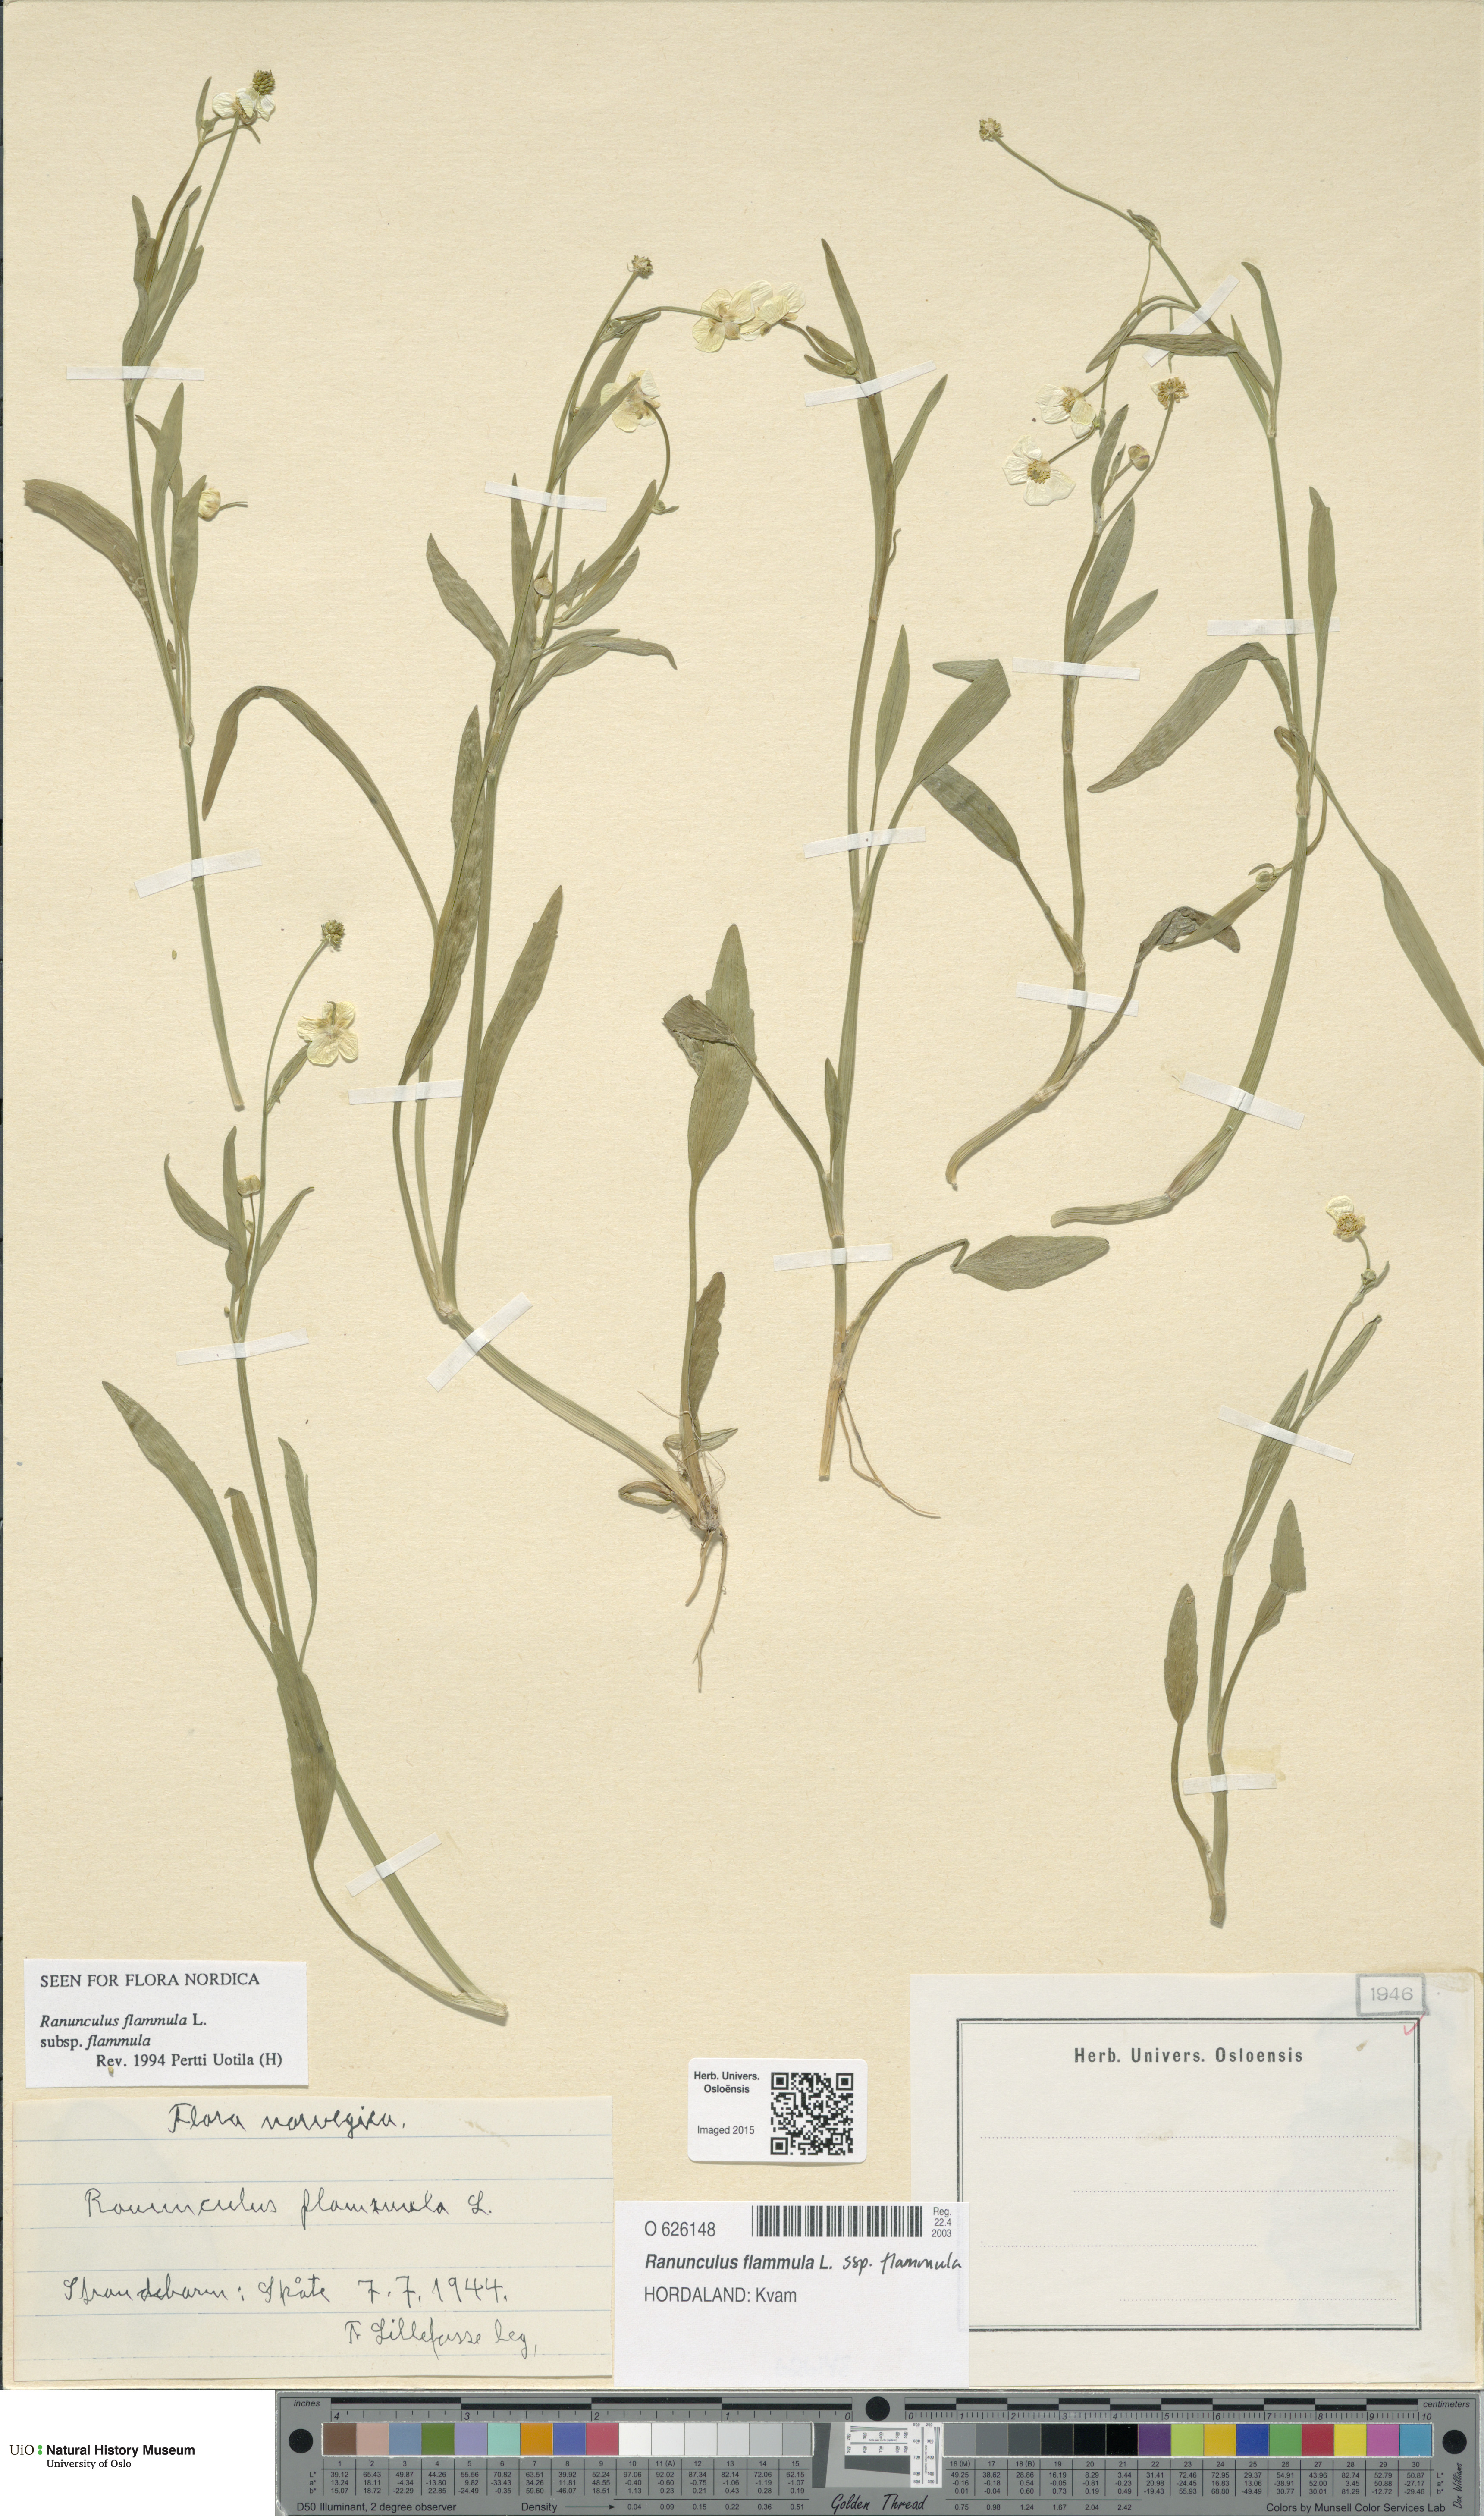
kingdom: Plantae
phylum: Tracheophyta
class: Magnoliopsida
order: Ranunculales
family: Ranunculaceae
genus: Ranunculus
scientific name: Ranunculus flammula
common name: Lesser spearwort
